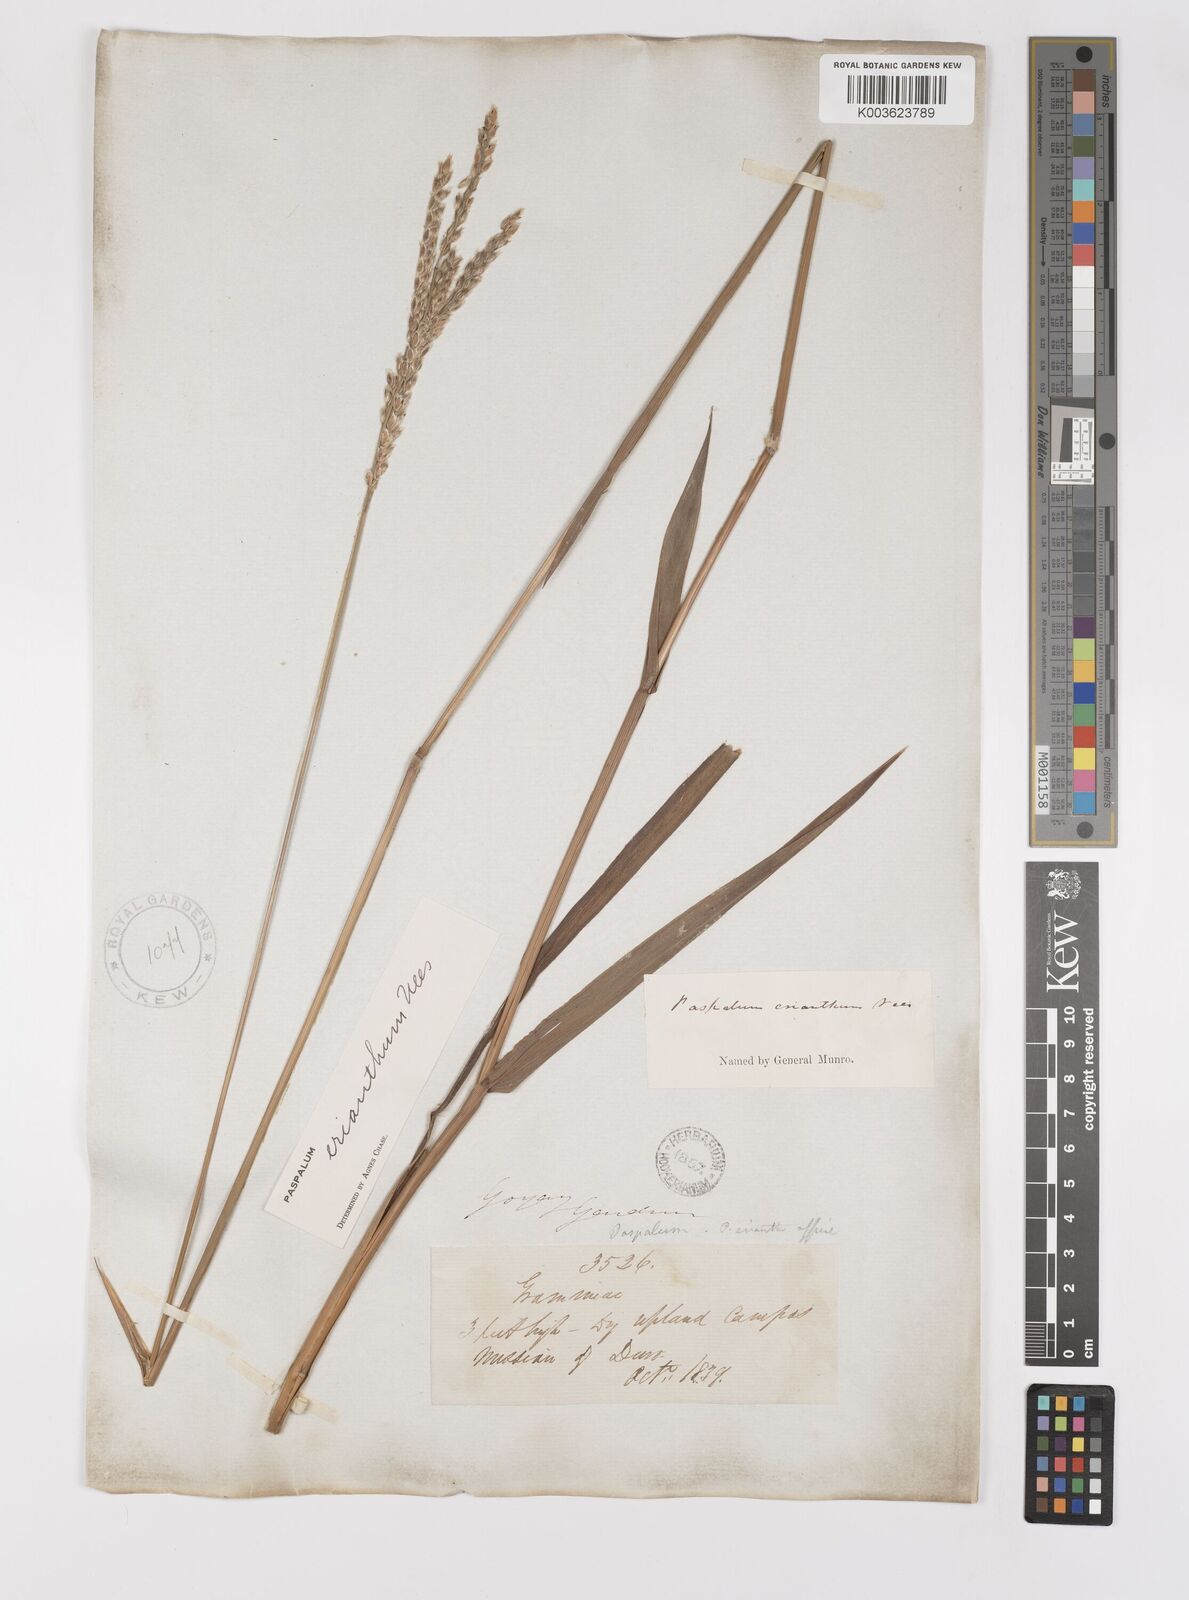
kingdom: Plantae
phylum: Tracheophyta
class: Liliopsida
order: Poales
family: Poaceae
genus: Paspalum
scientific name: Paspalum erianthum
